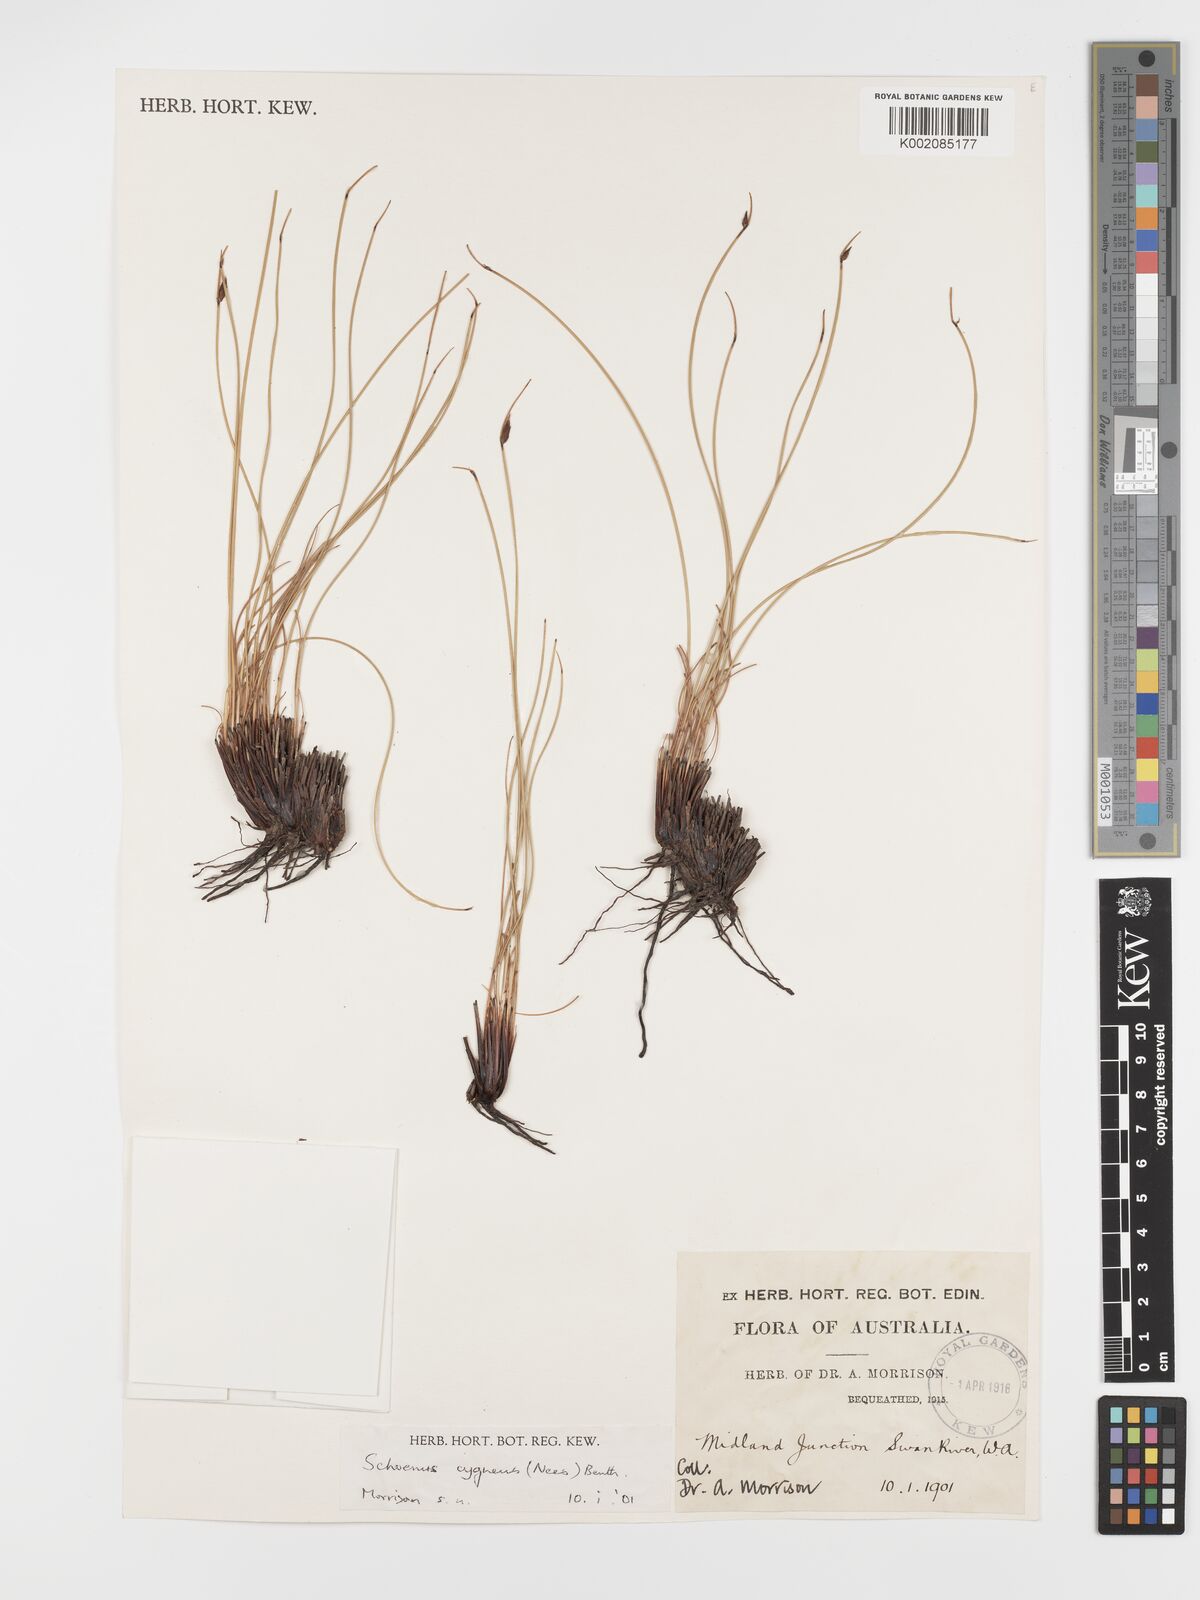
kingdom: Plantae
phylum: Tracheophyta
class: Liliopsida
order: Poales
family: Cyperaceae
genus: Schoenus
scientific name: Schoenus cygneus
